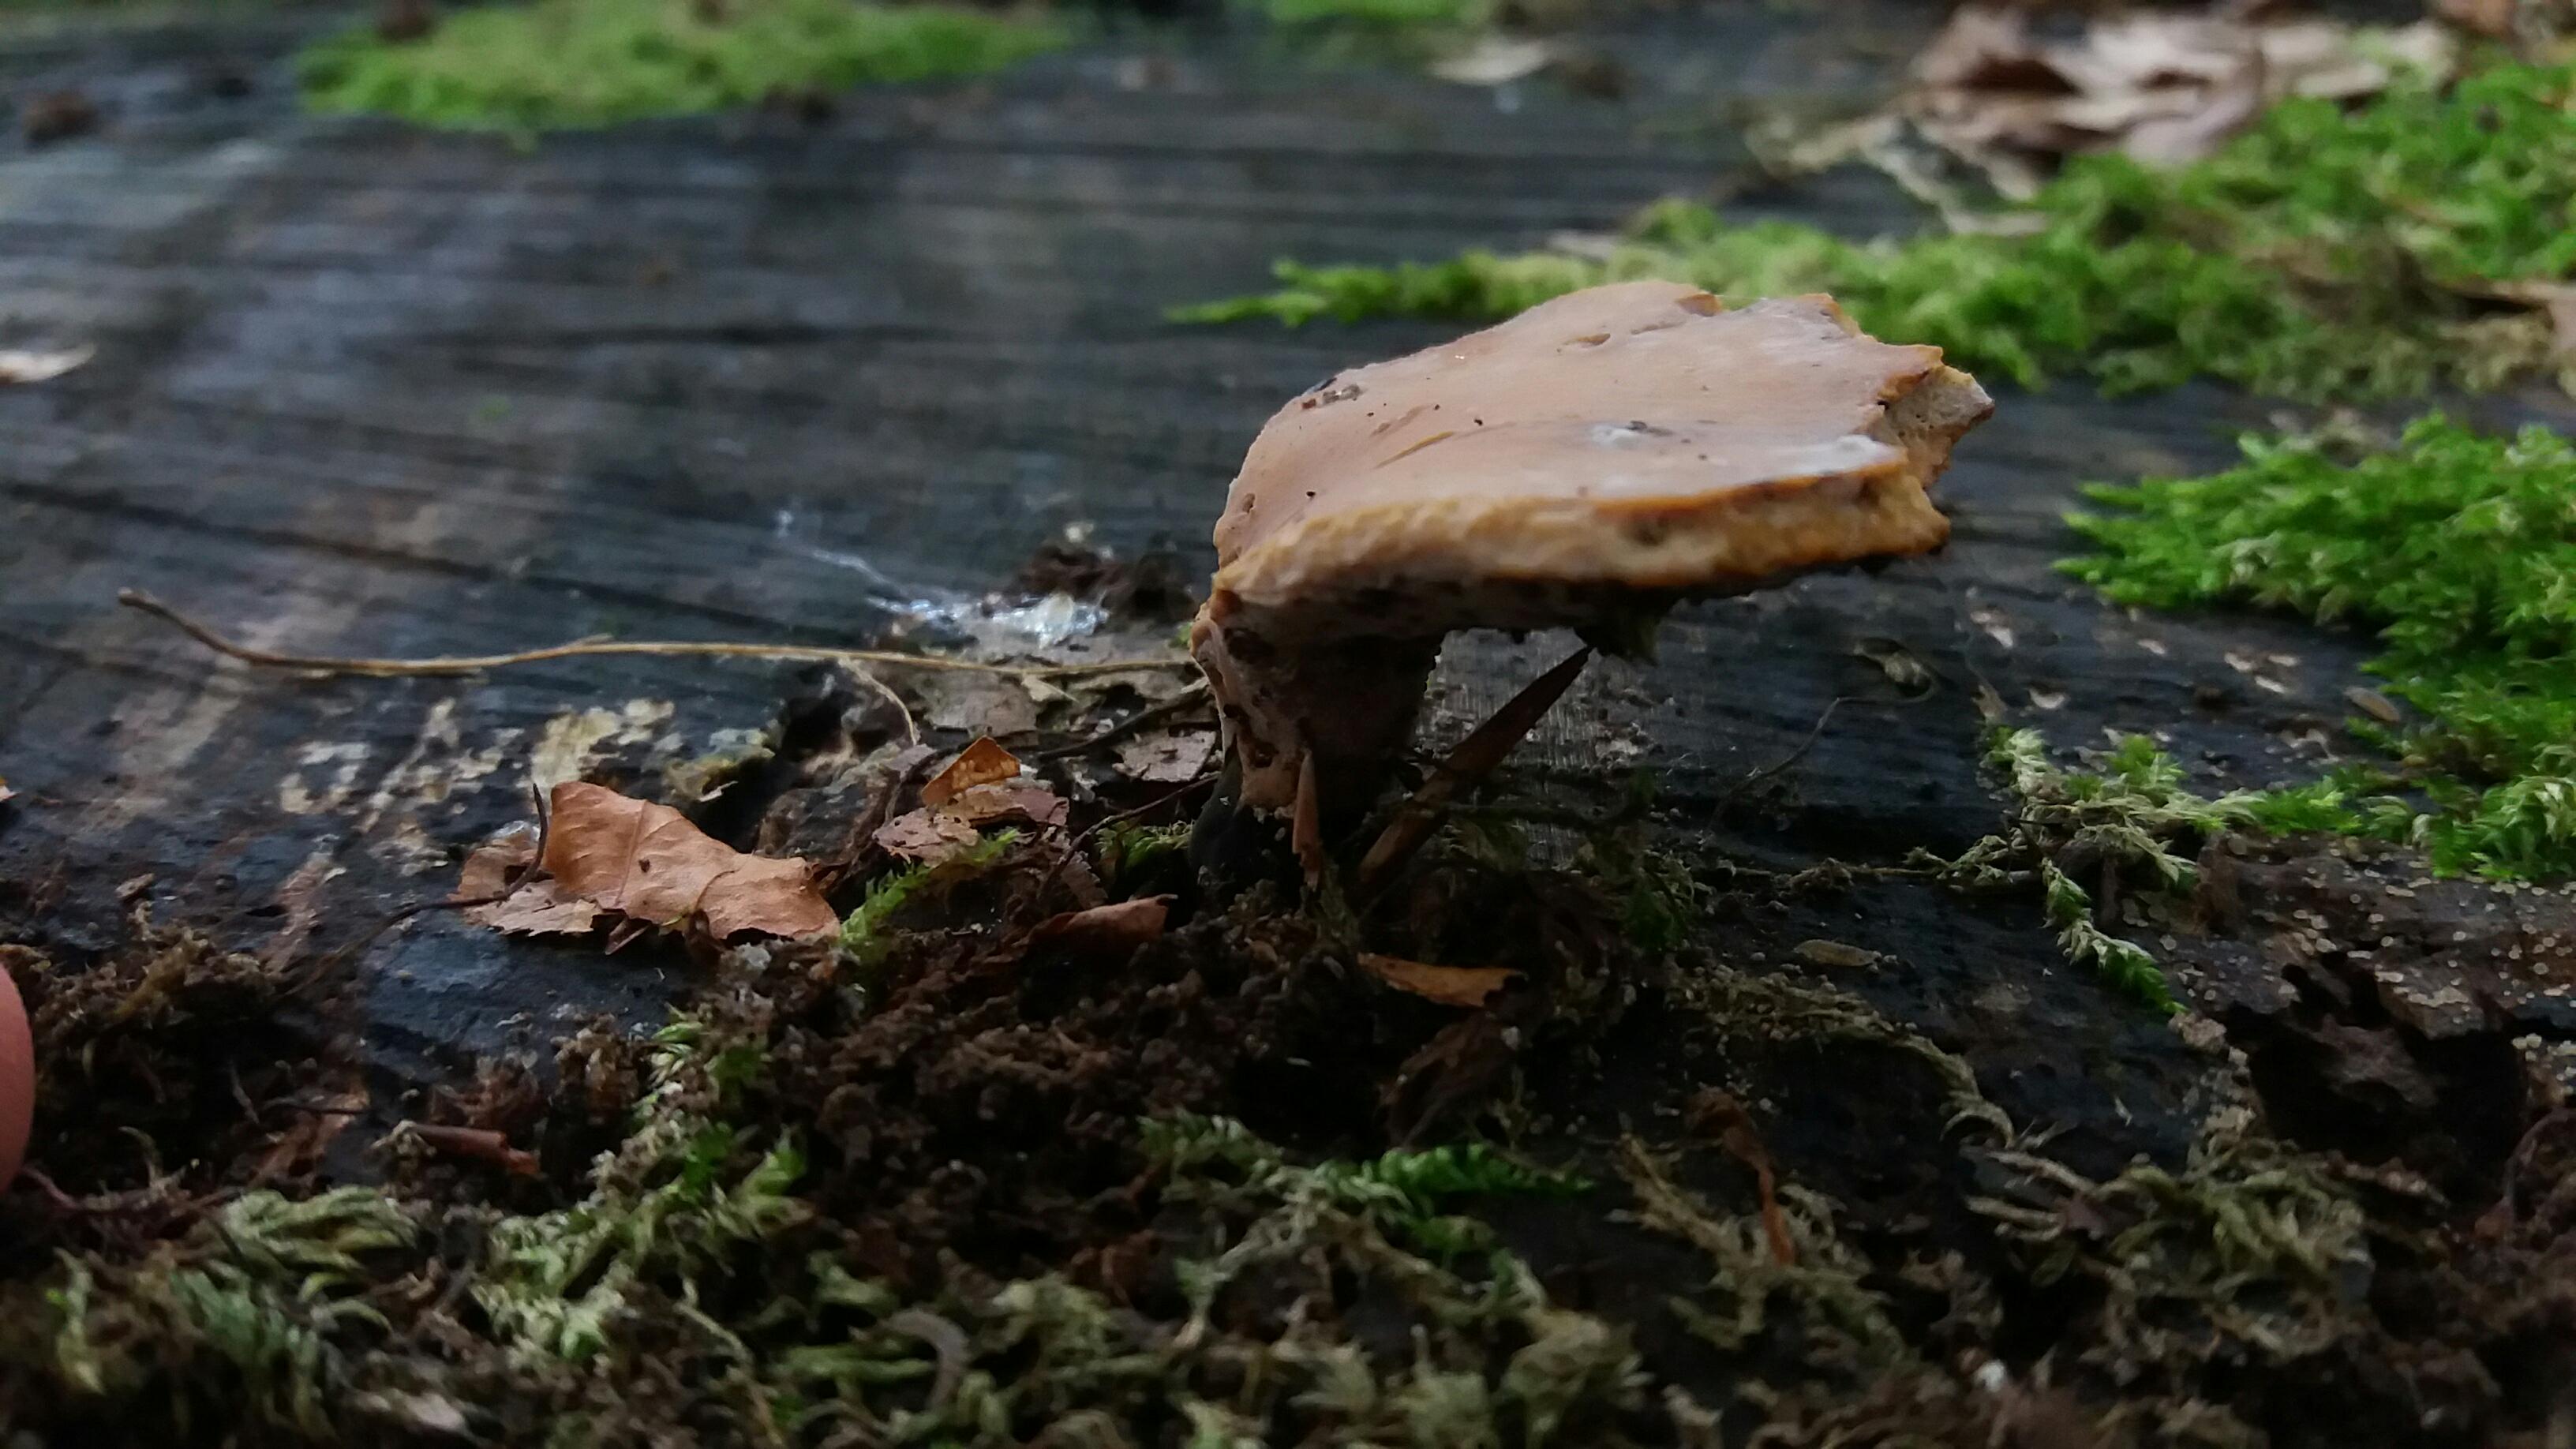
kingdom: Fungi
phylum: Basidiomycota
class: Agaricomycetes
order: Polyporales
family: Polyporaceae
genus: Cerioporus
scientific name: Cerioporus varius
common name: foranderlig stilkporesvamp
